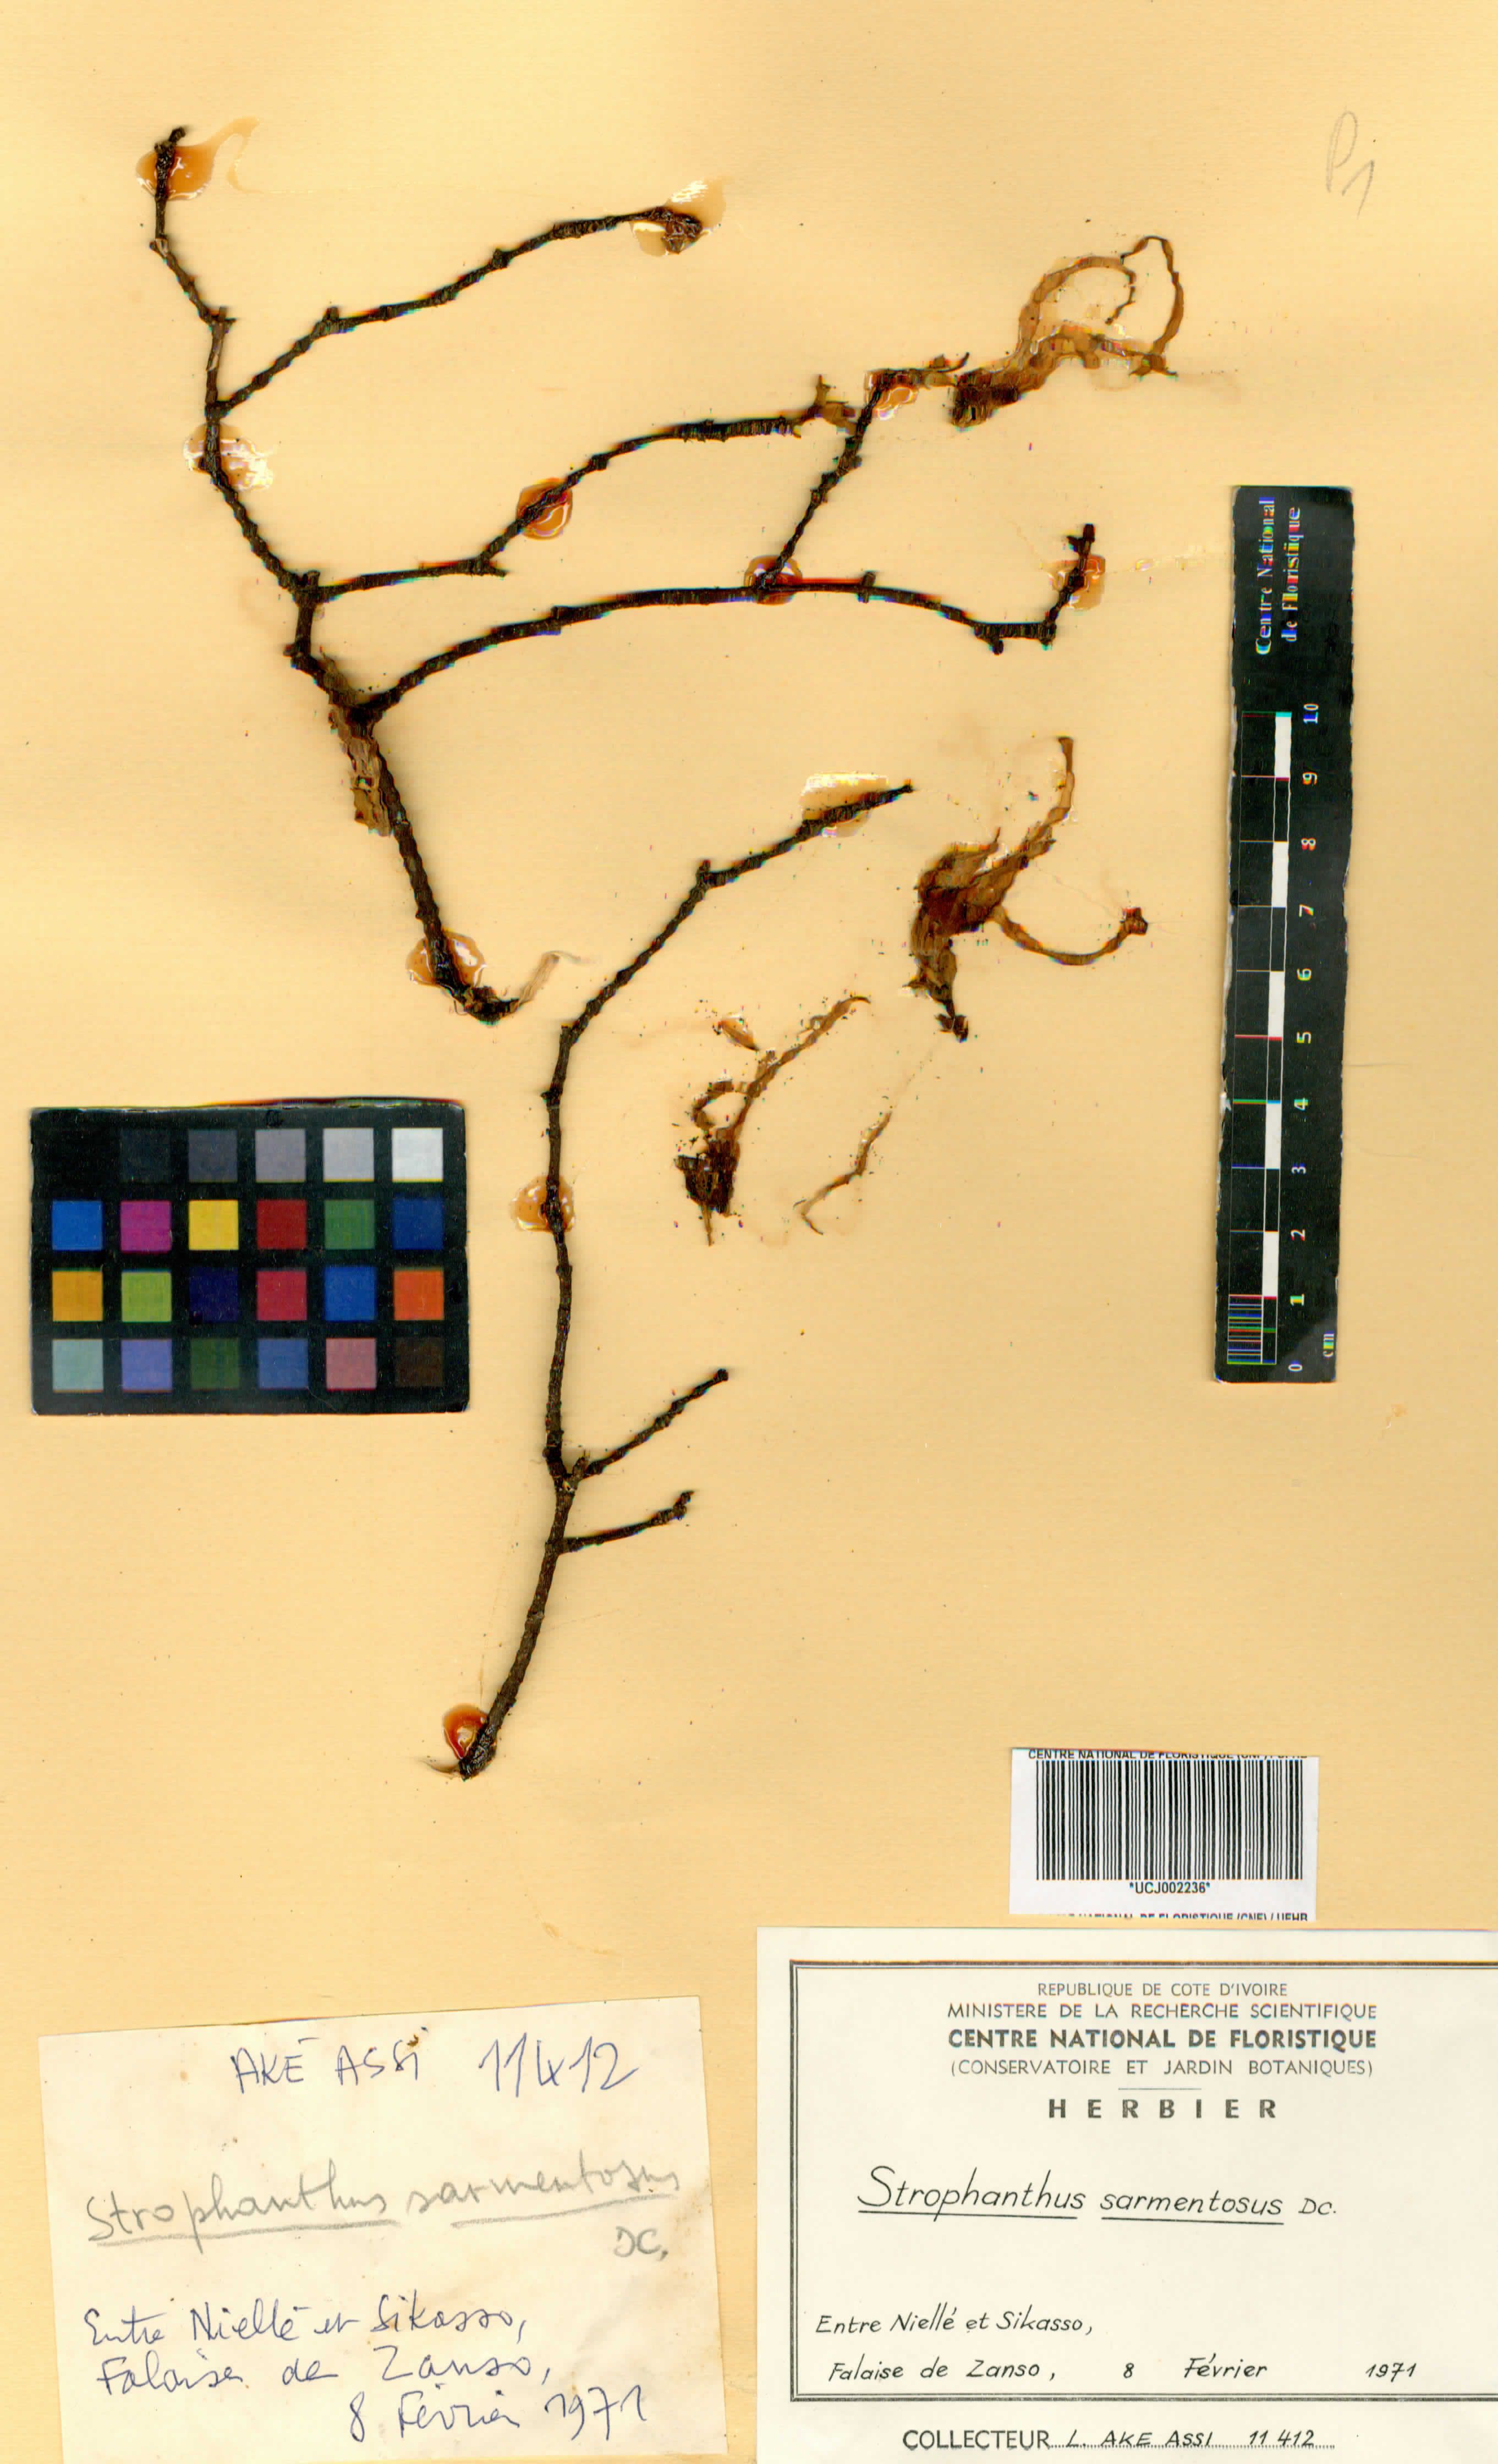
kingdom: Plantae
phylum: Tracheophyta
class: Magnoliopsida
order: Gentianales
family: Apocynaceae
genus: Strophanthus
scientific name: Strophanthus sarmentosus
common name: Poison arrowvine
